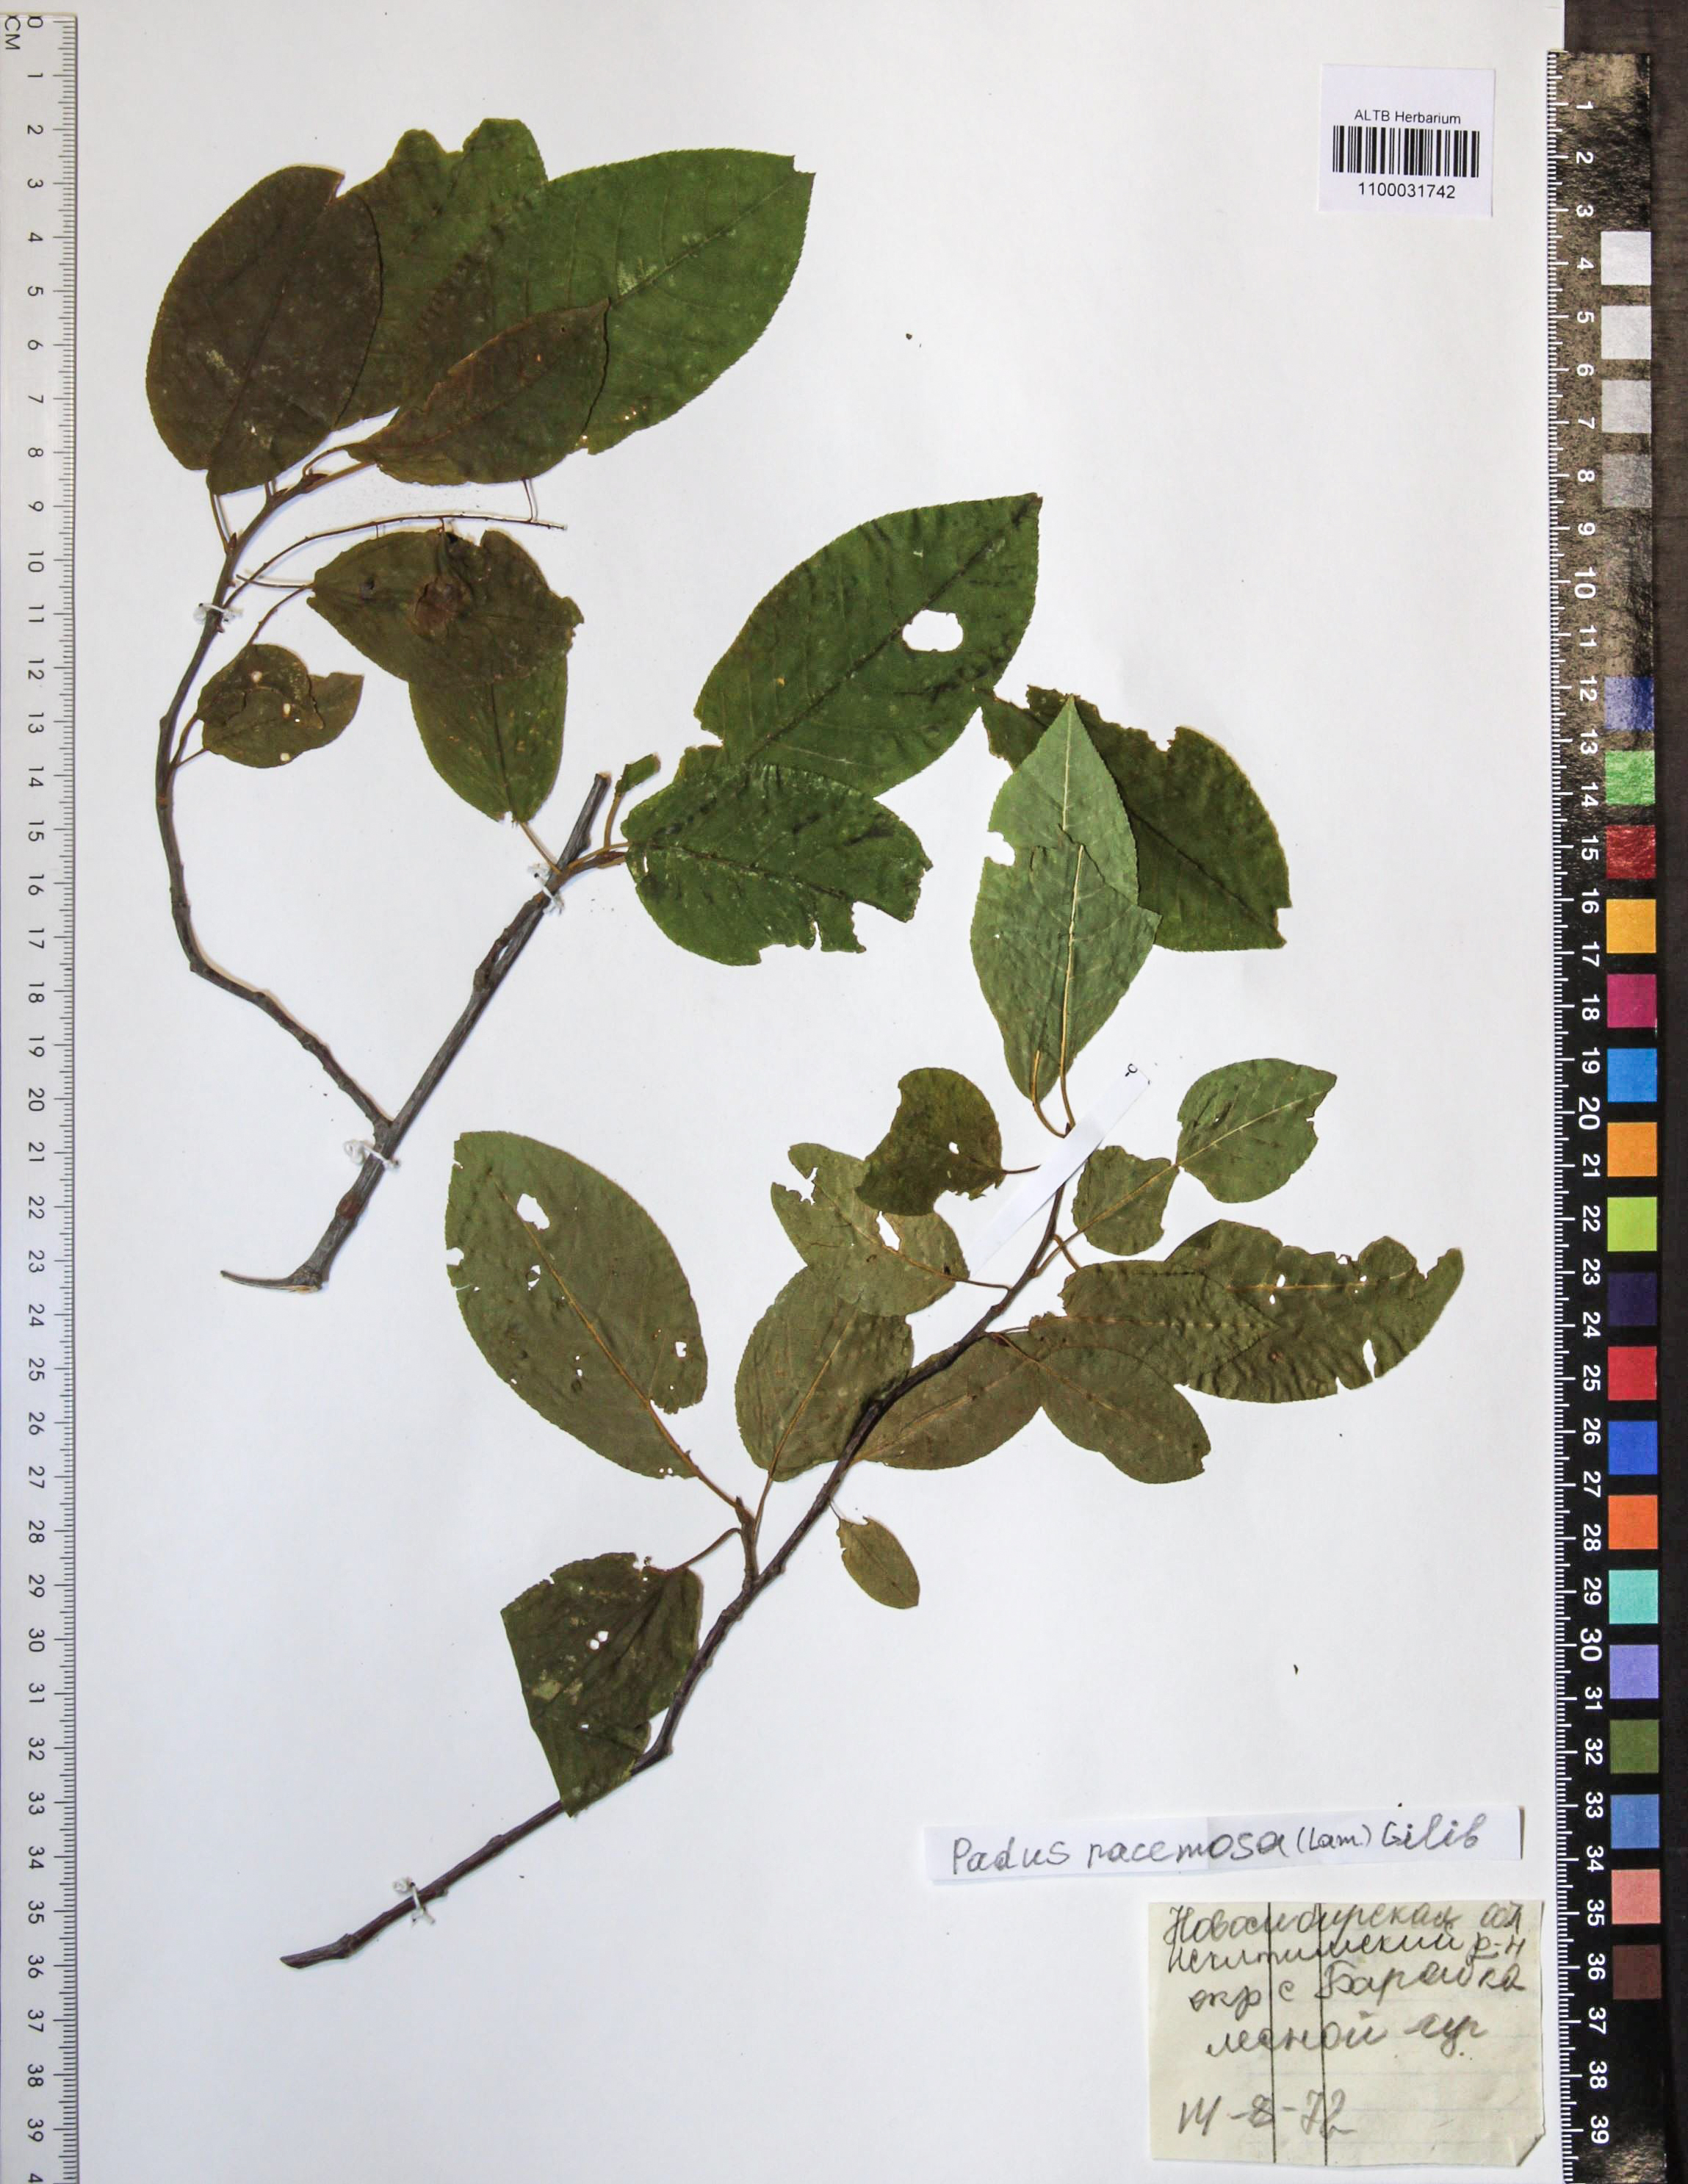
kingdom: Plantae
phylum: Tracheophyta
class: Magnoliopsida
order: Rosales
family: Rosaceae
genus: Prunus
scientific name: Prunus padus
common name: Bird cherry
